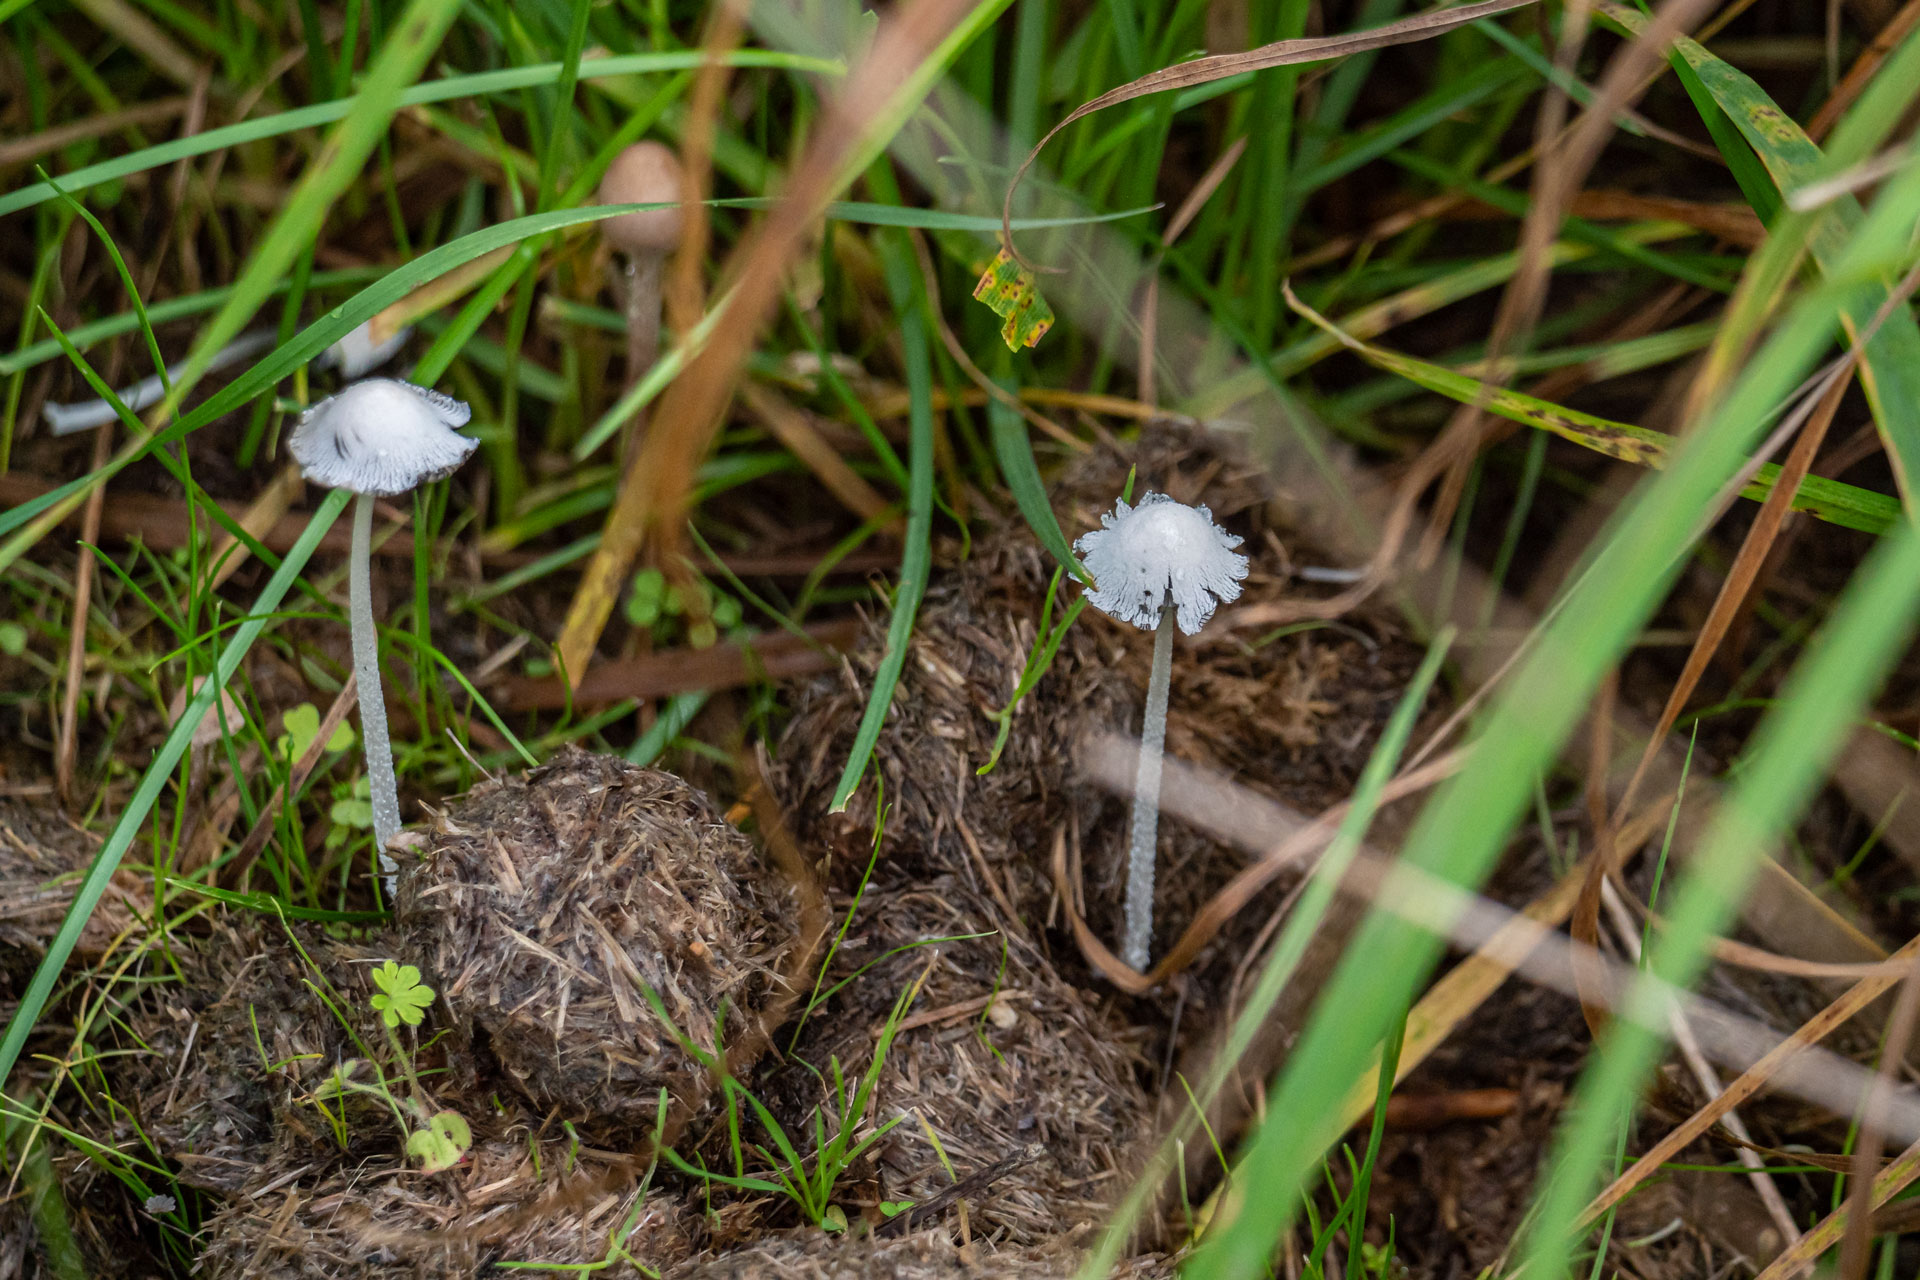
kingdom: Fungi
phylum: Basidiomycota
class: Agaricomycetes
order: Agaricales
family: Psathyrellaceae
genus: Coprinopsis
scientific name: Coprinopsis nivea
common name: snehvid blækhat
